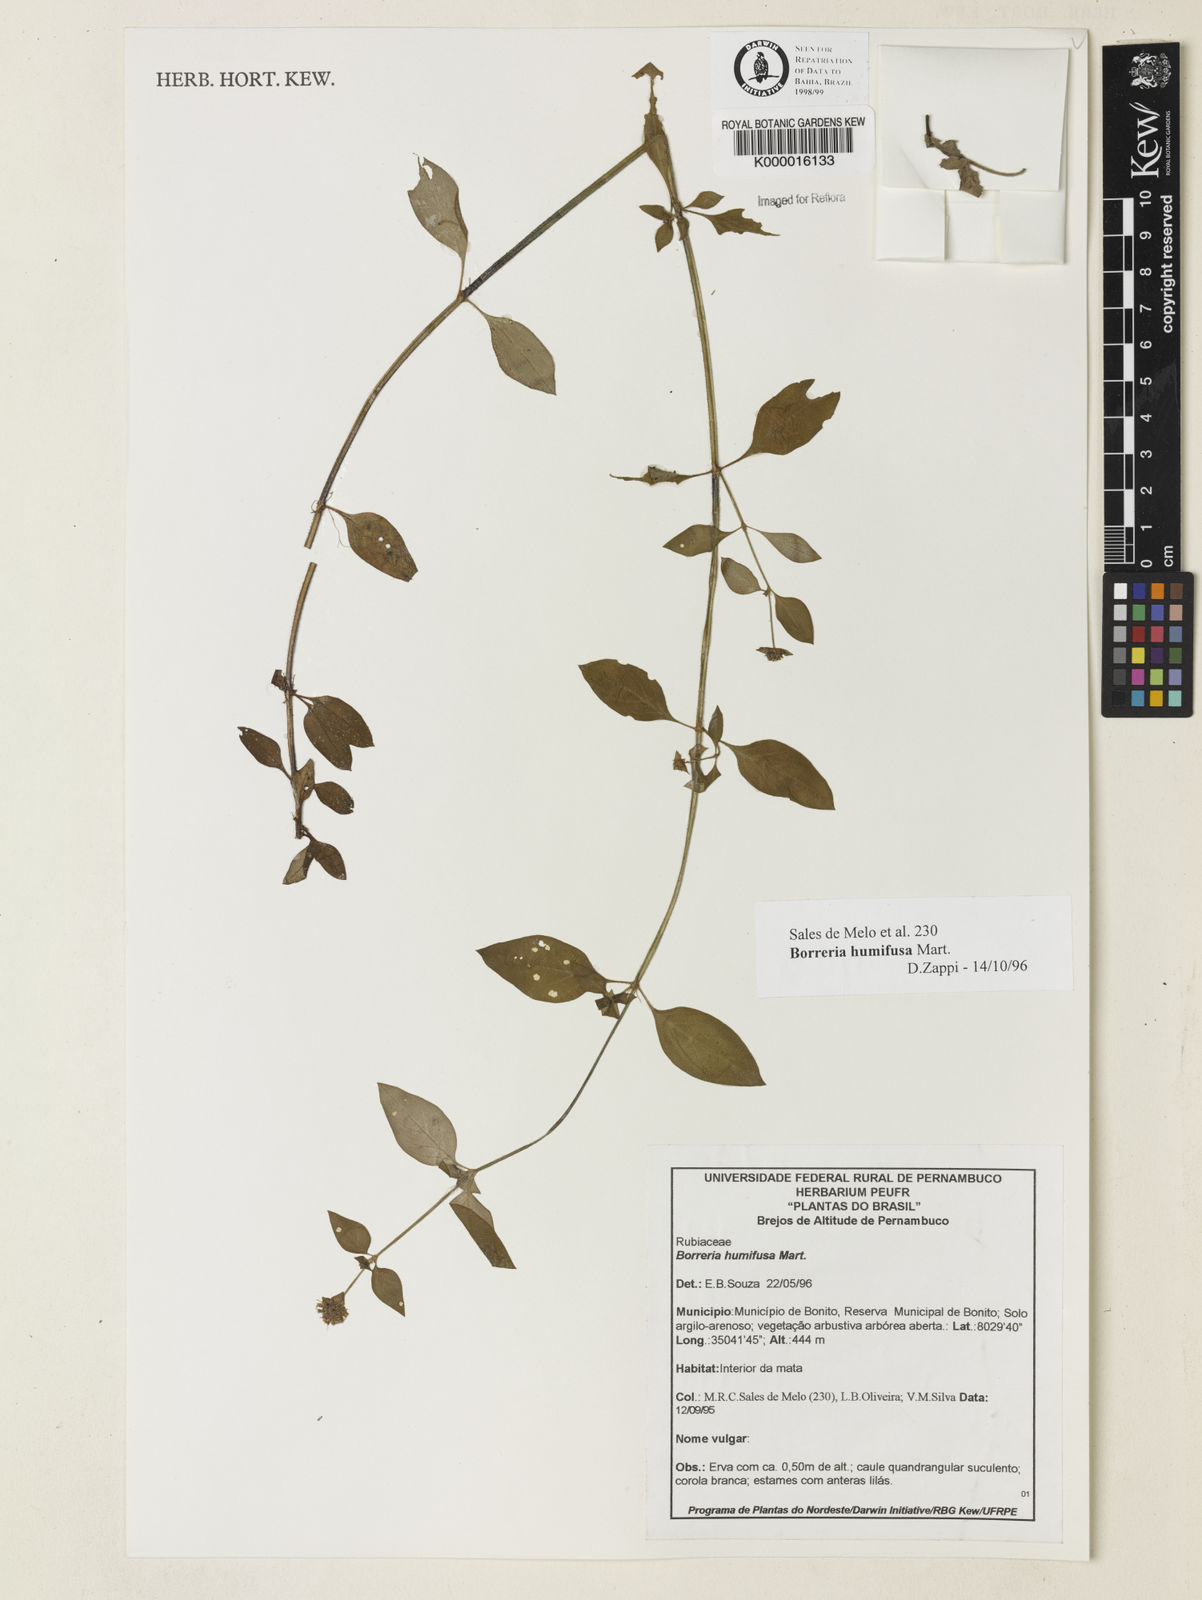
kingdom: Plantae
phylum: Tracheophyta
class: Magnoliopsida
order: Gentianales
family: Rubiaceae
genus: Spermacoce
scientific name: Spermacoce scabiosoides
